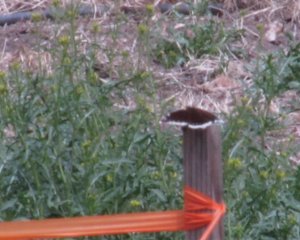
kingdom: Animalia
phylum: Arthropoda
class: Insecta
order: Lepidoptera
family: Nymphalidae
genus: Nymphalis
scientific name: Nymphalis antiopa
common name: Mourning Cloak
